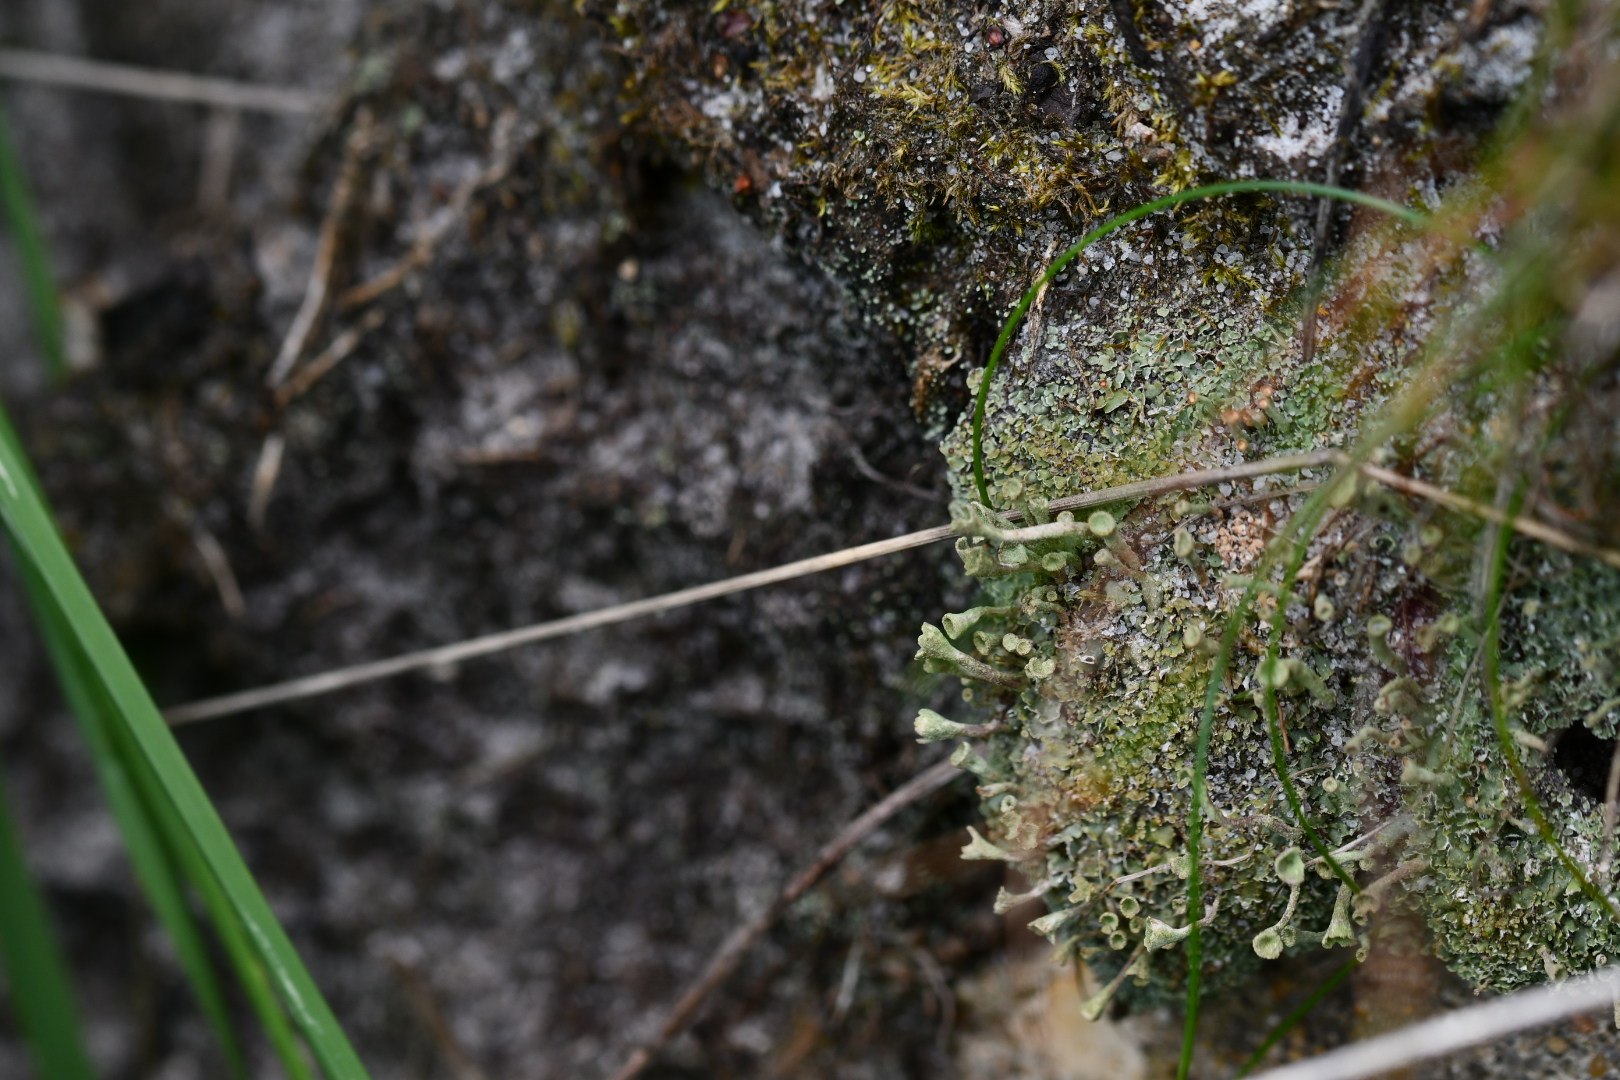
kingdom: Fungi
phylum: Ascomycota
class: Lecanoromycetes
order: Lecanorales
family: Cladoniaceae
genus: Cladonia
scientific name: Cladonia
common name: brungrøn bægerlav
